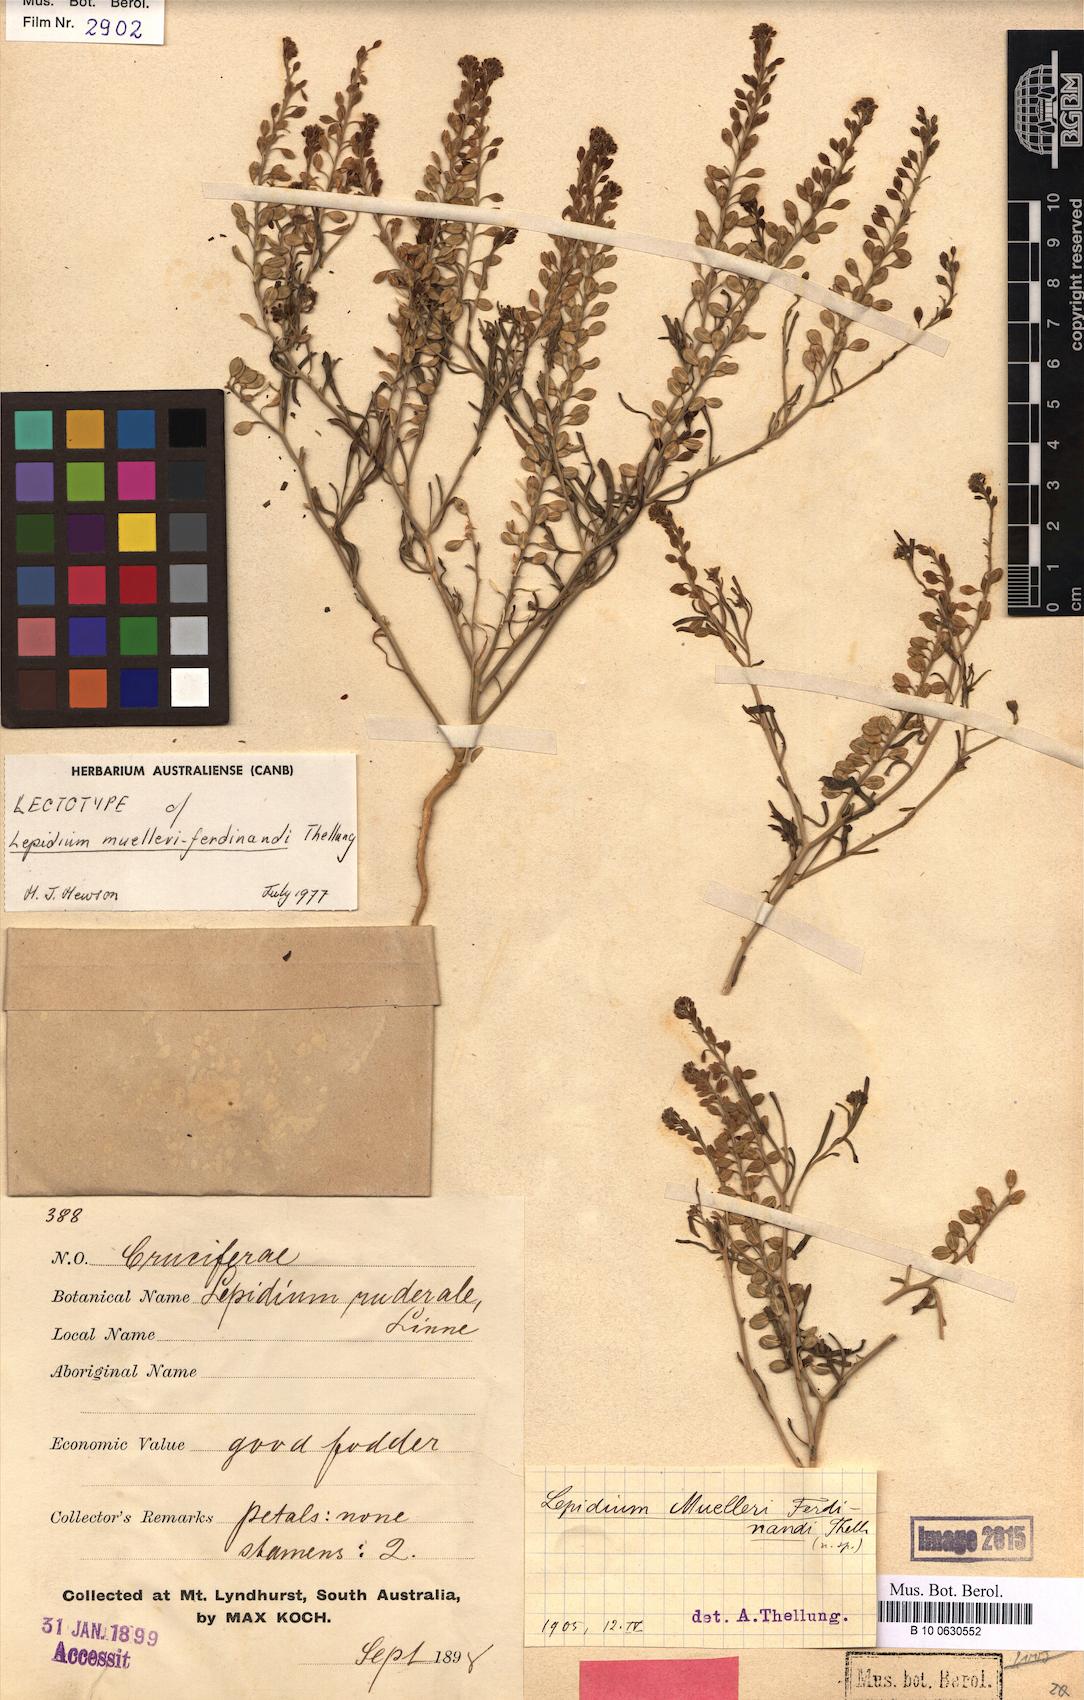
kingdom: Plantae
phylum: Tracheophyta
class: Magnoliopsida
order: Brassicales
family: Brassicaceae
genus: Lepidium
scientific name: Lepidium muelleriferdinandi
